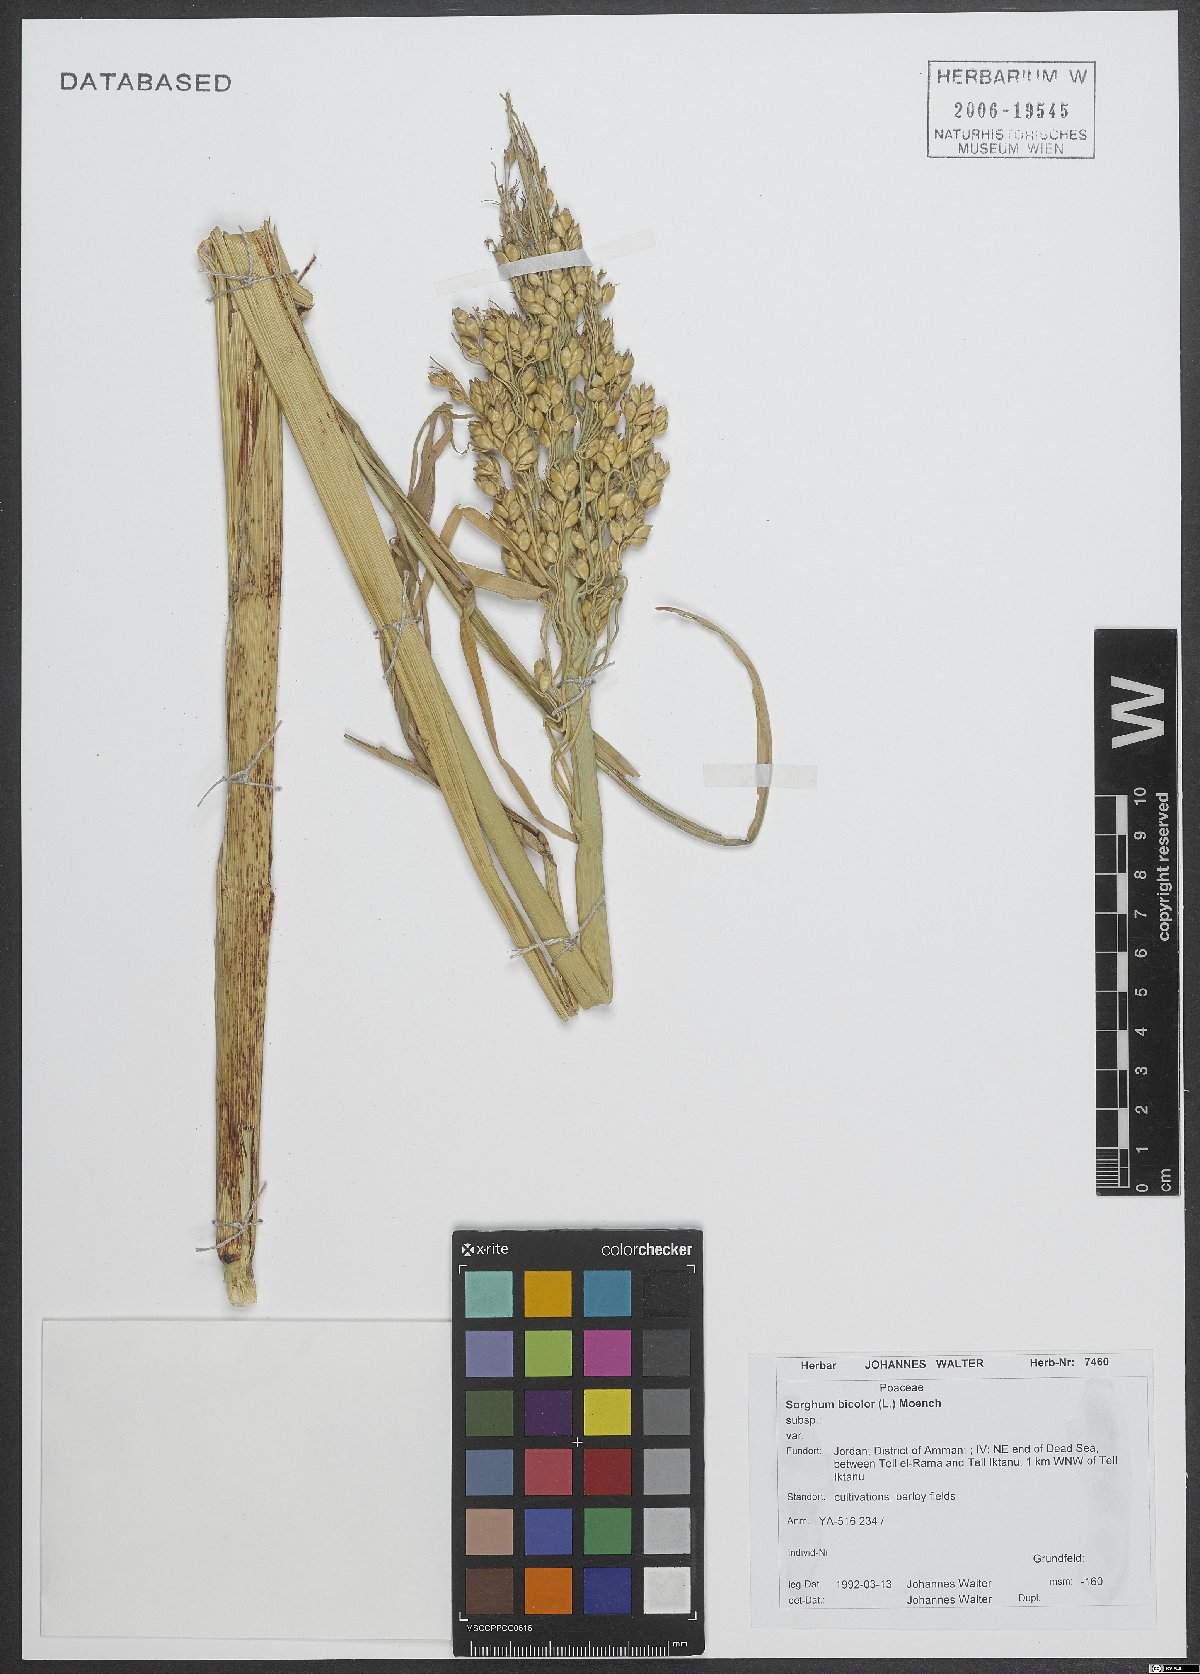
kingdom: Plantae
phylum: Tracheophyta
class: Liliopsida
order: Poales
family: Poaceae
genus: Sorghum
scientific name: Sorghum bicolor
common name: Sorghum
